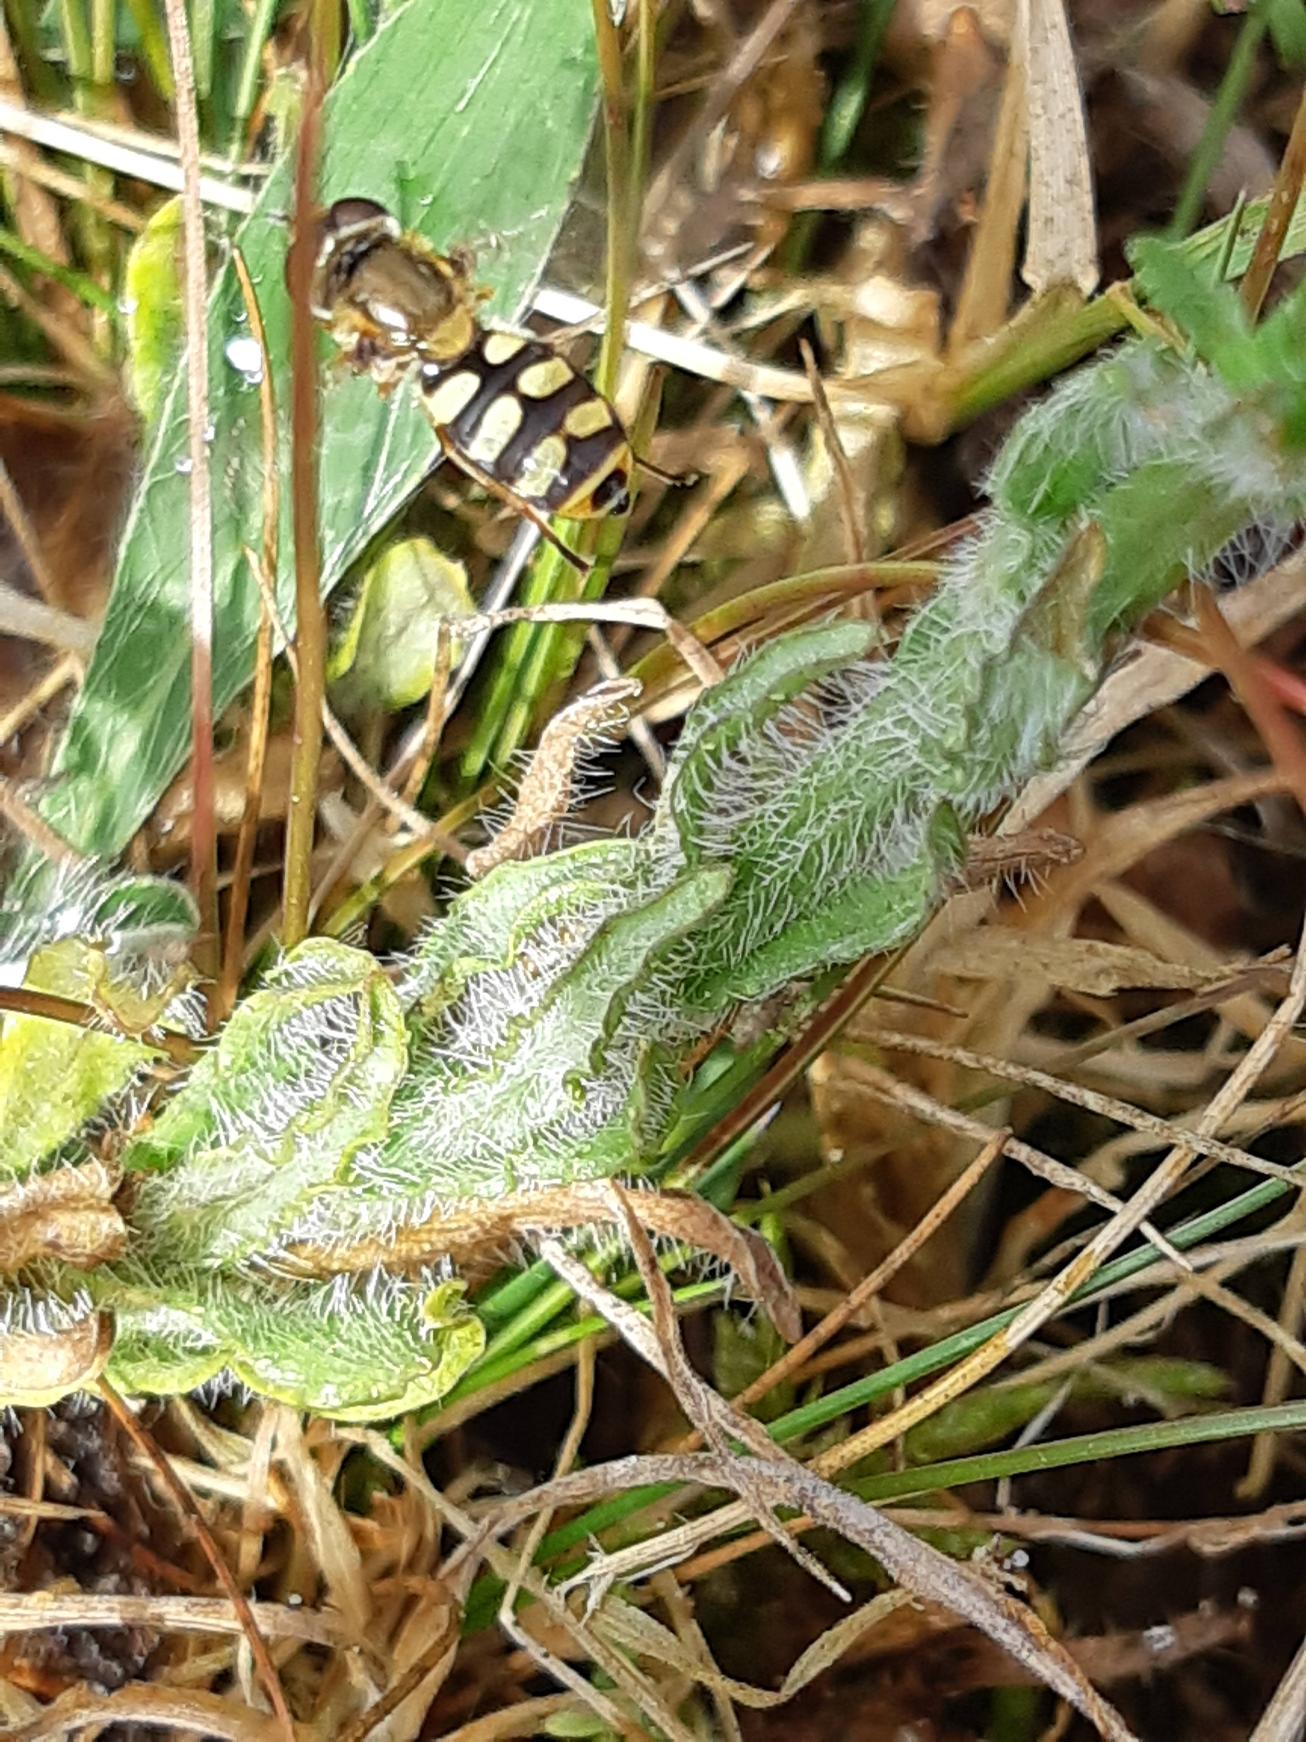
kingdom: Plantae
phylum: Tracheophyta
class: Magnoliopsida
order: Asterales
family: Campanulaceae
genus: Jasione
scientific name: Jasione montana
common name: Blåmunke
